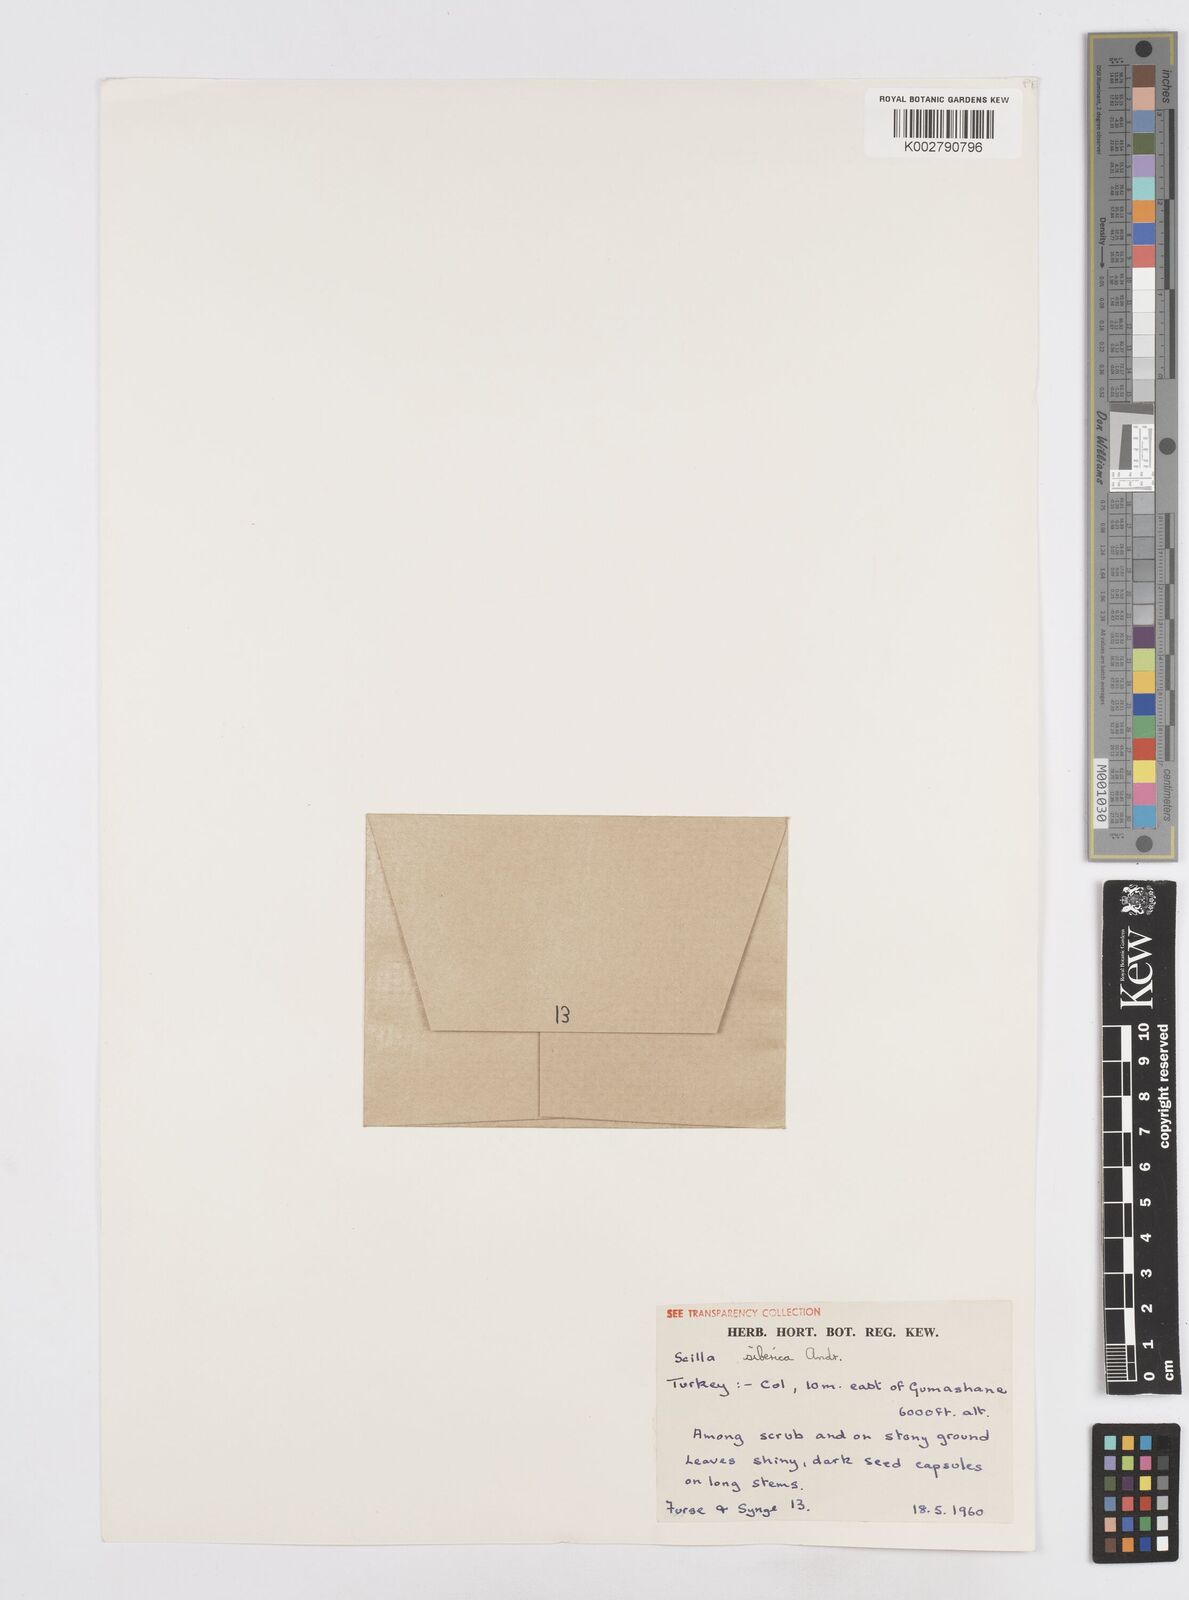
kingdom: Plantae
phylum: Tracheophyta
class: Liliopsida
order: Asparagales
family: Asparagaceae
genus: Scilla
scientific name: Scilla siberica
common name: Siberian squill
